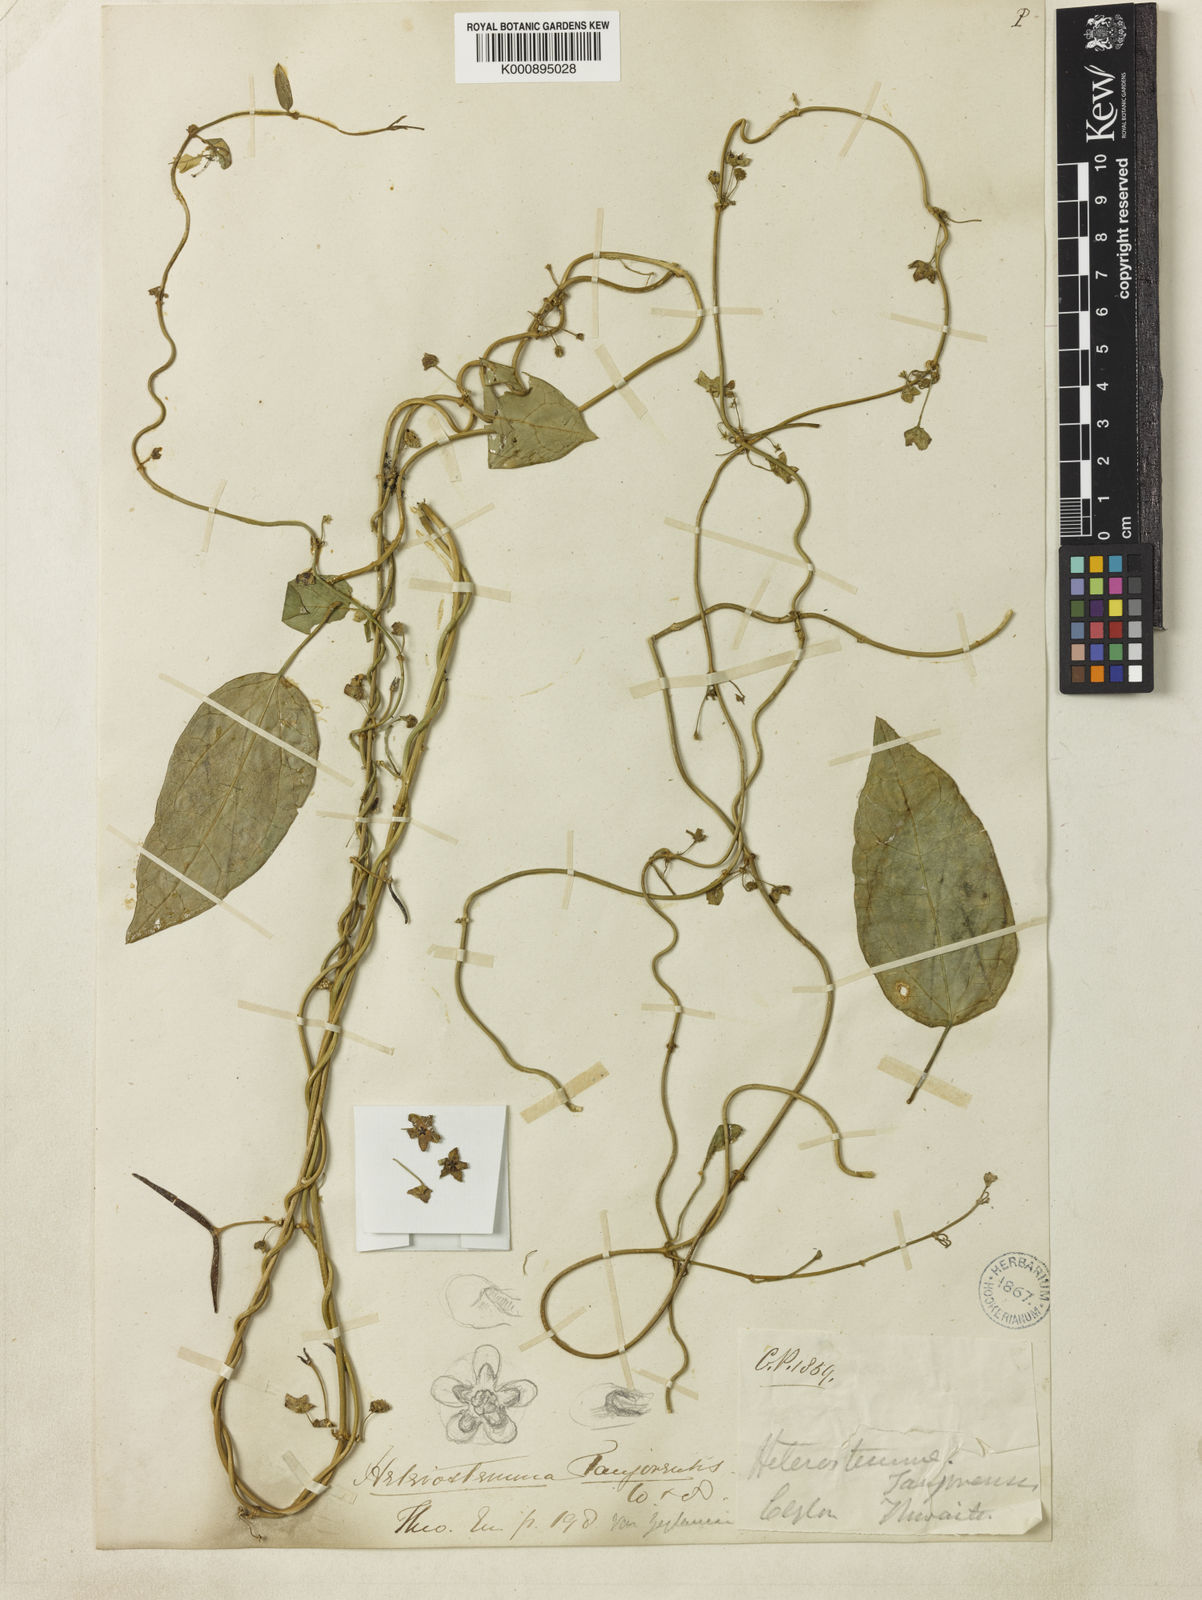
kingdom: Plantae
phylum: Tracheophyta
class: Magnoliopsida
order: Gentianales
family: Apocynaceae
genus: Heterostemma
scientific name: Heterostemma
